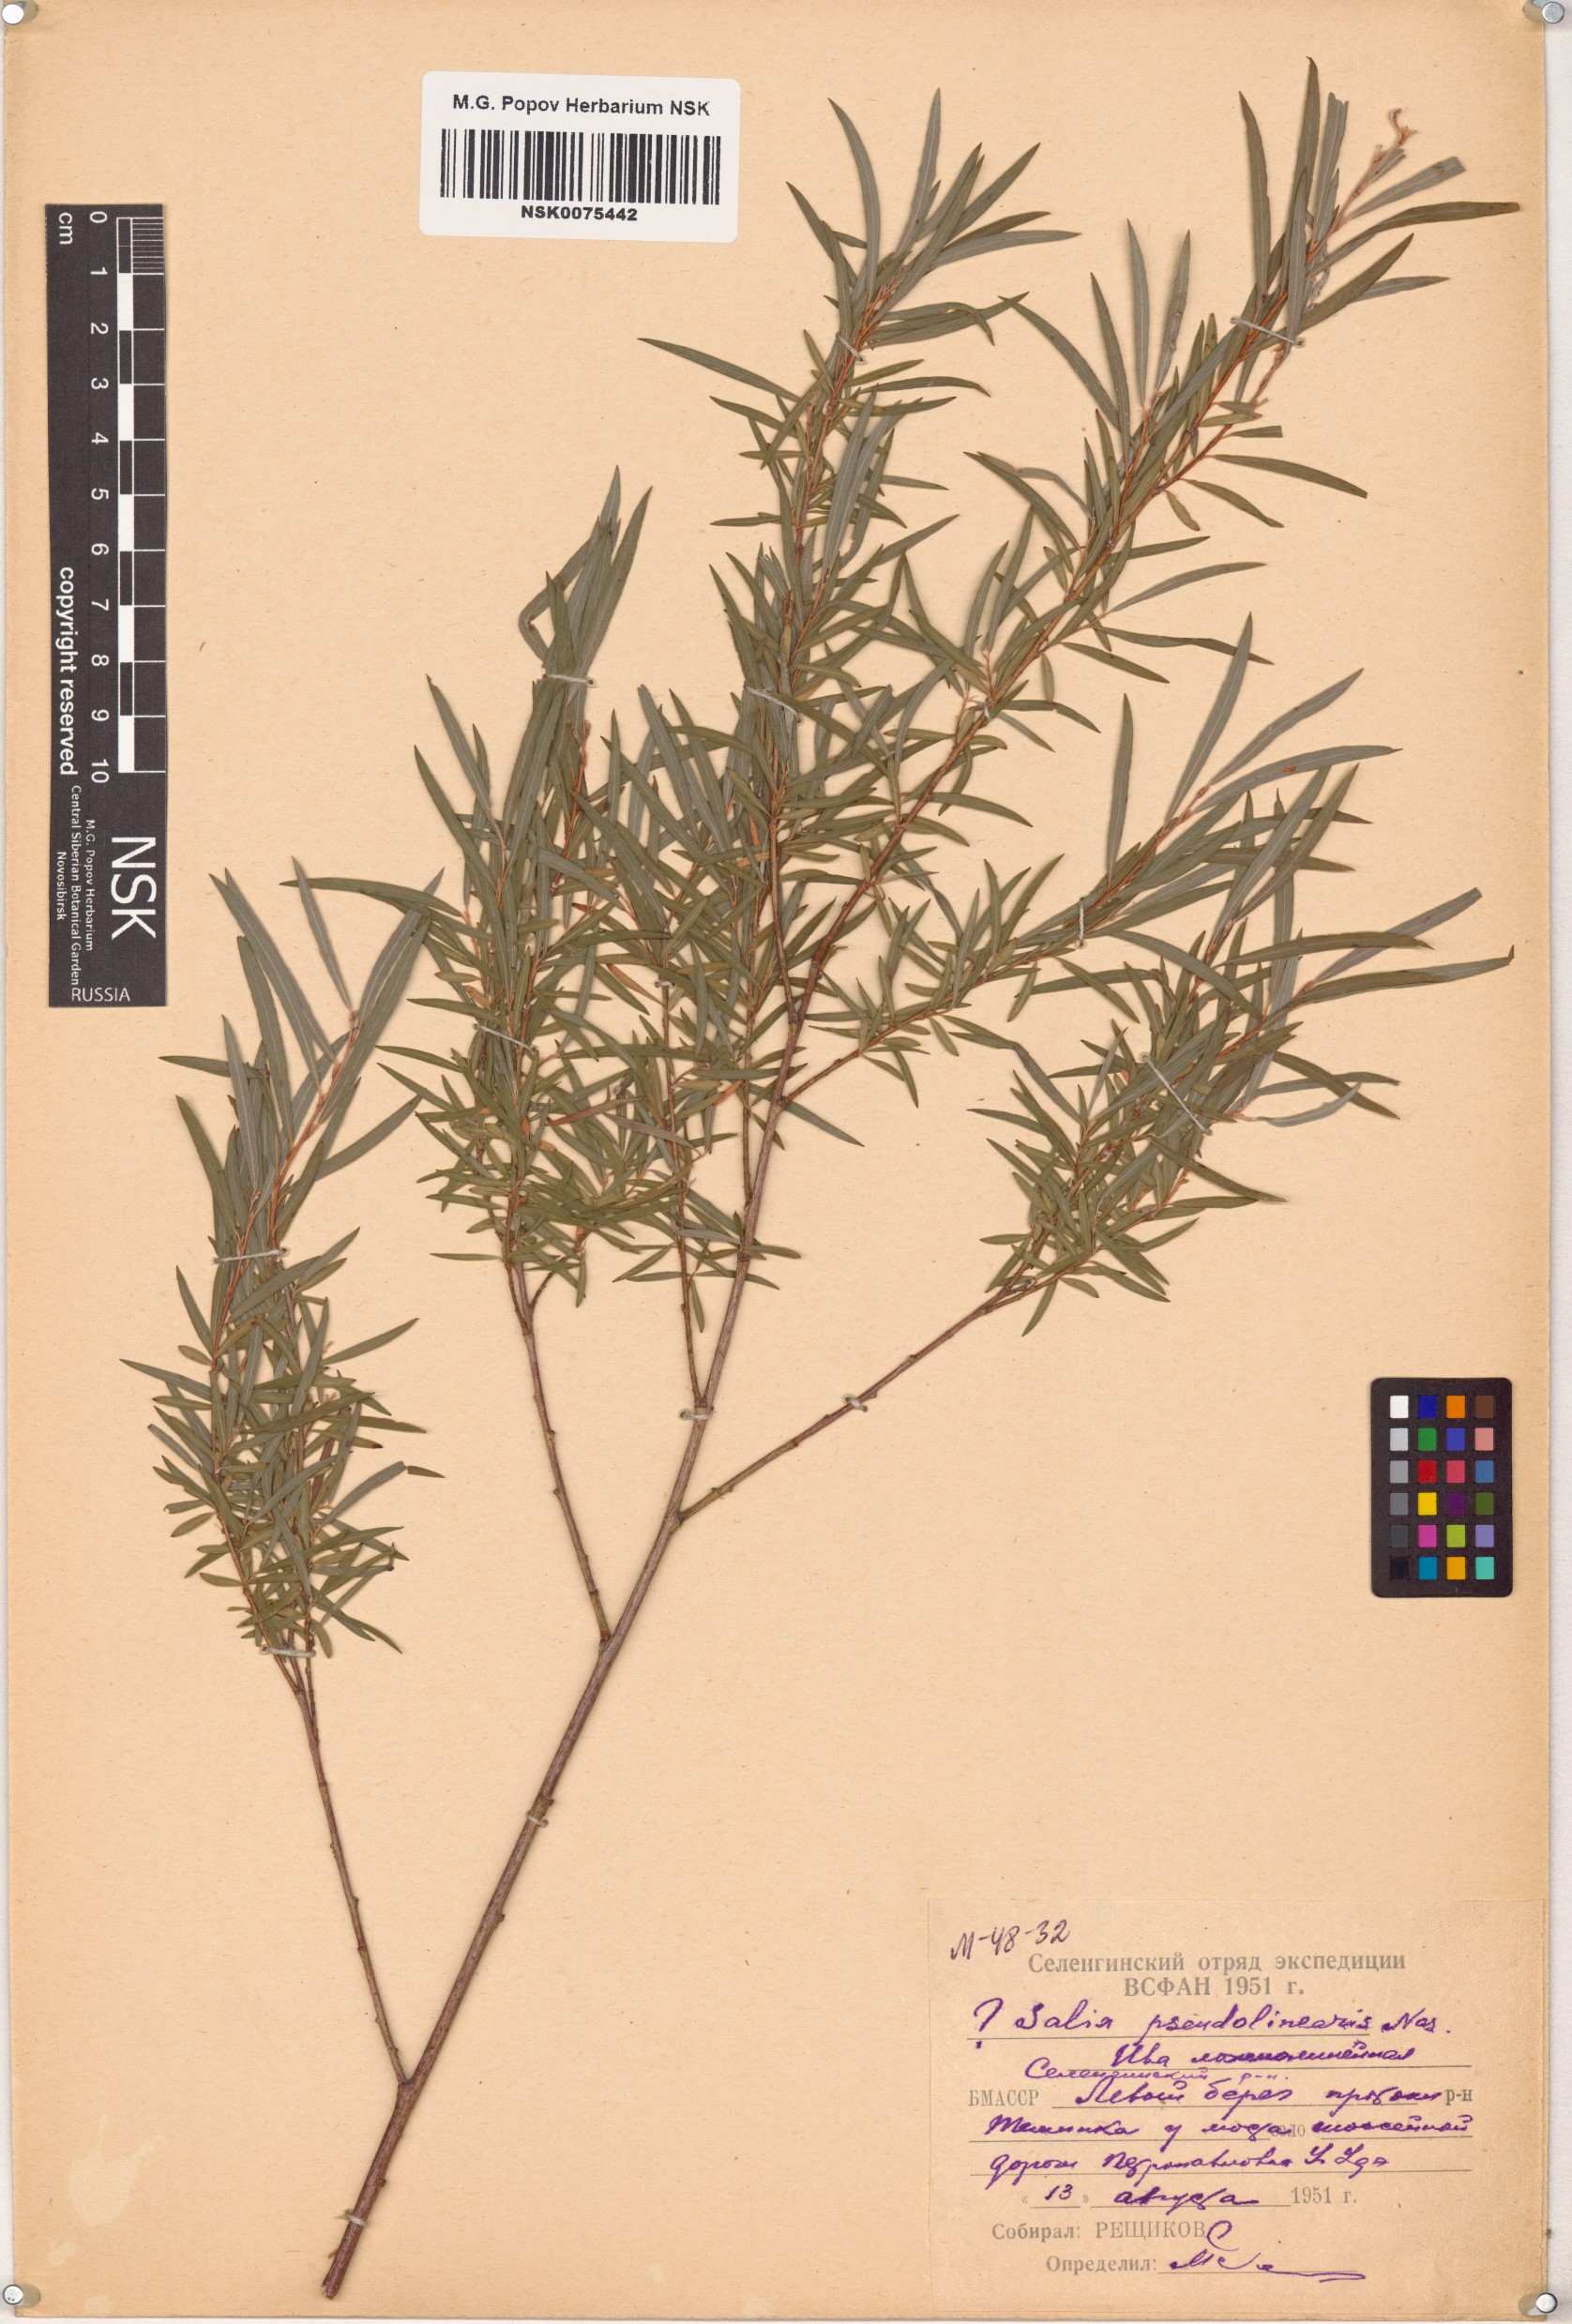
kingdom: Plantae
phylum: Tracheophyta
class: Magnoliopsida
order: Malpighiales
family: Salicaceae
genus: Salix
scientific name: Salix schwerinii
